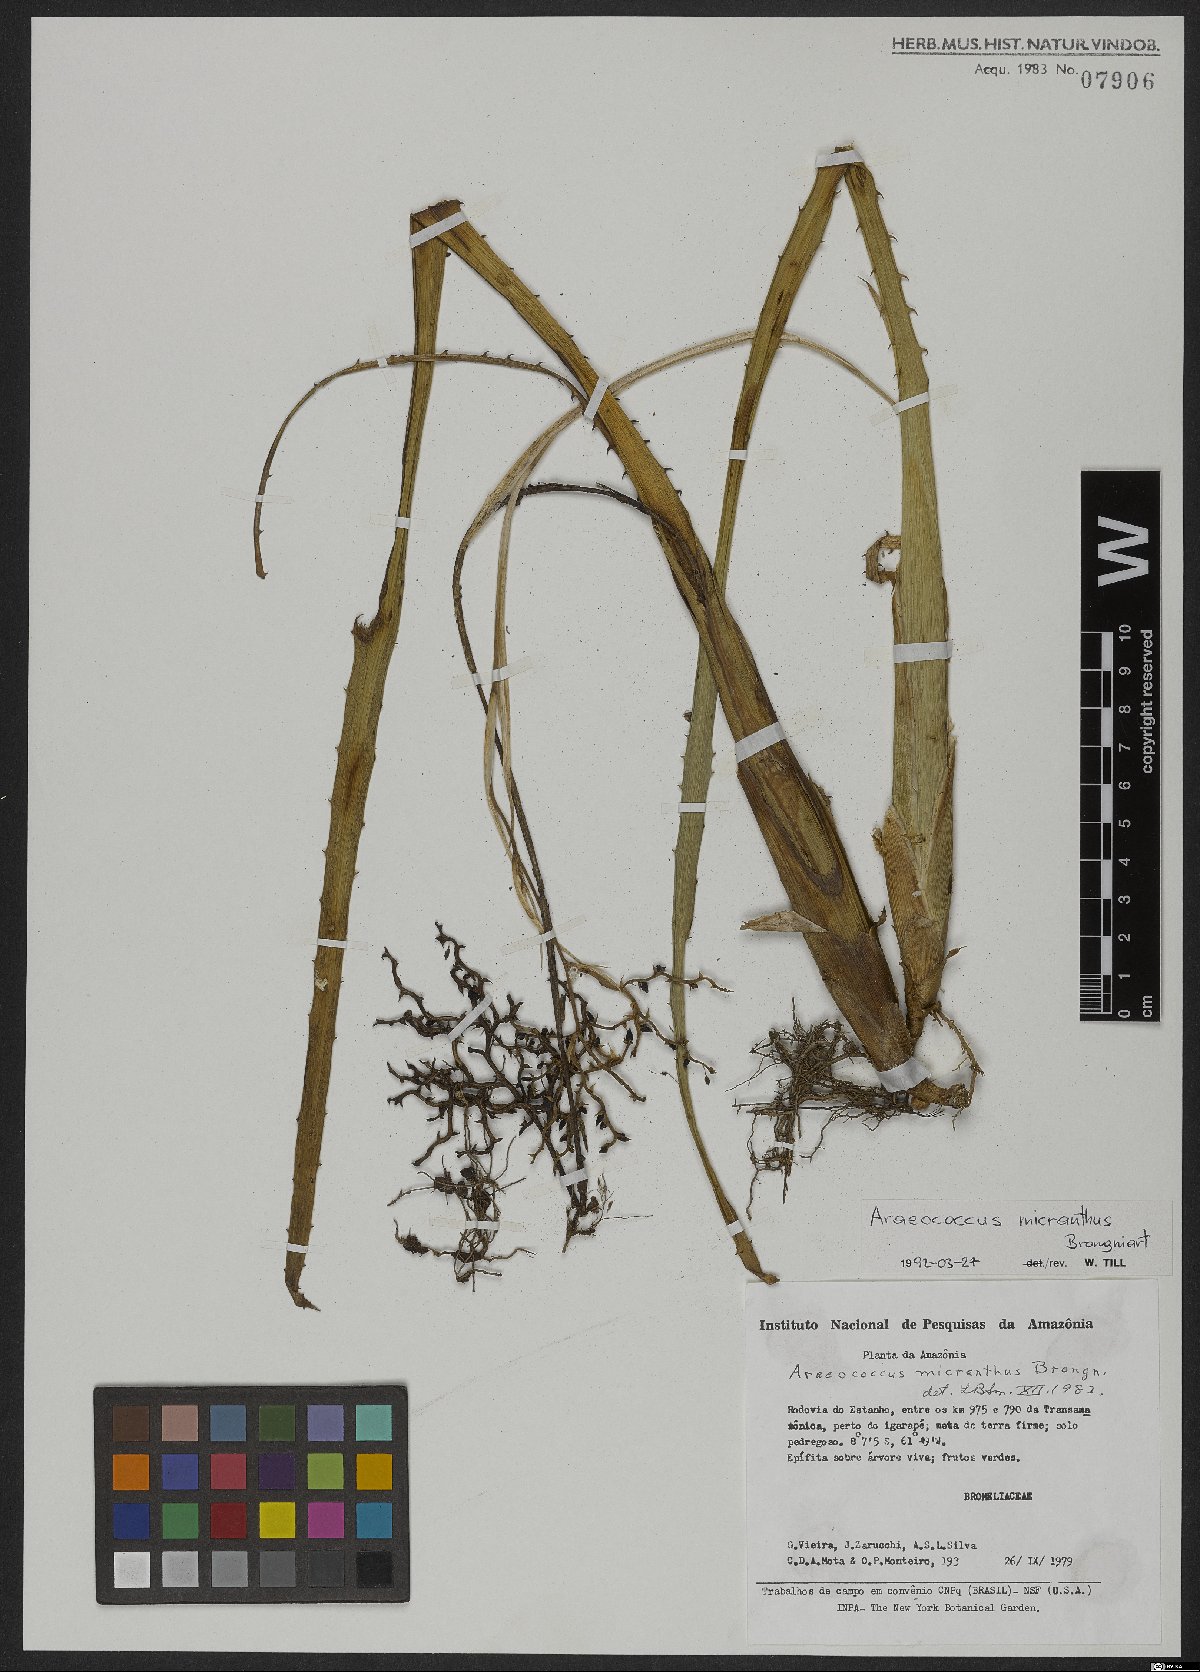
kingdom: Plantae
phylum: Tracheophyta
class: Liliopsida
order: Poales
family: Bromeliaceae
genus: Araeococcus
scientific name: Araeococcus micranthus
